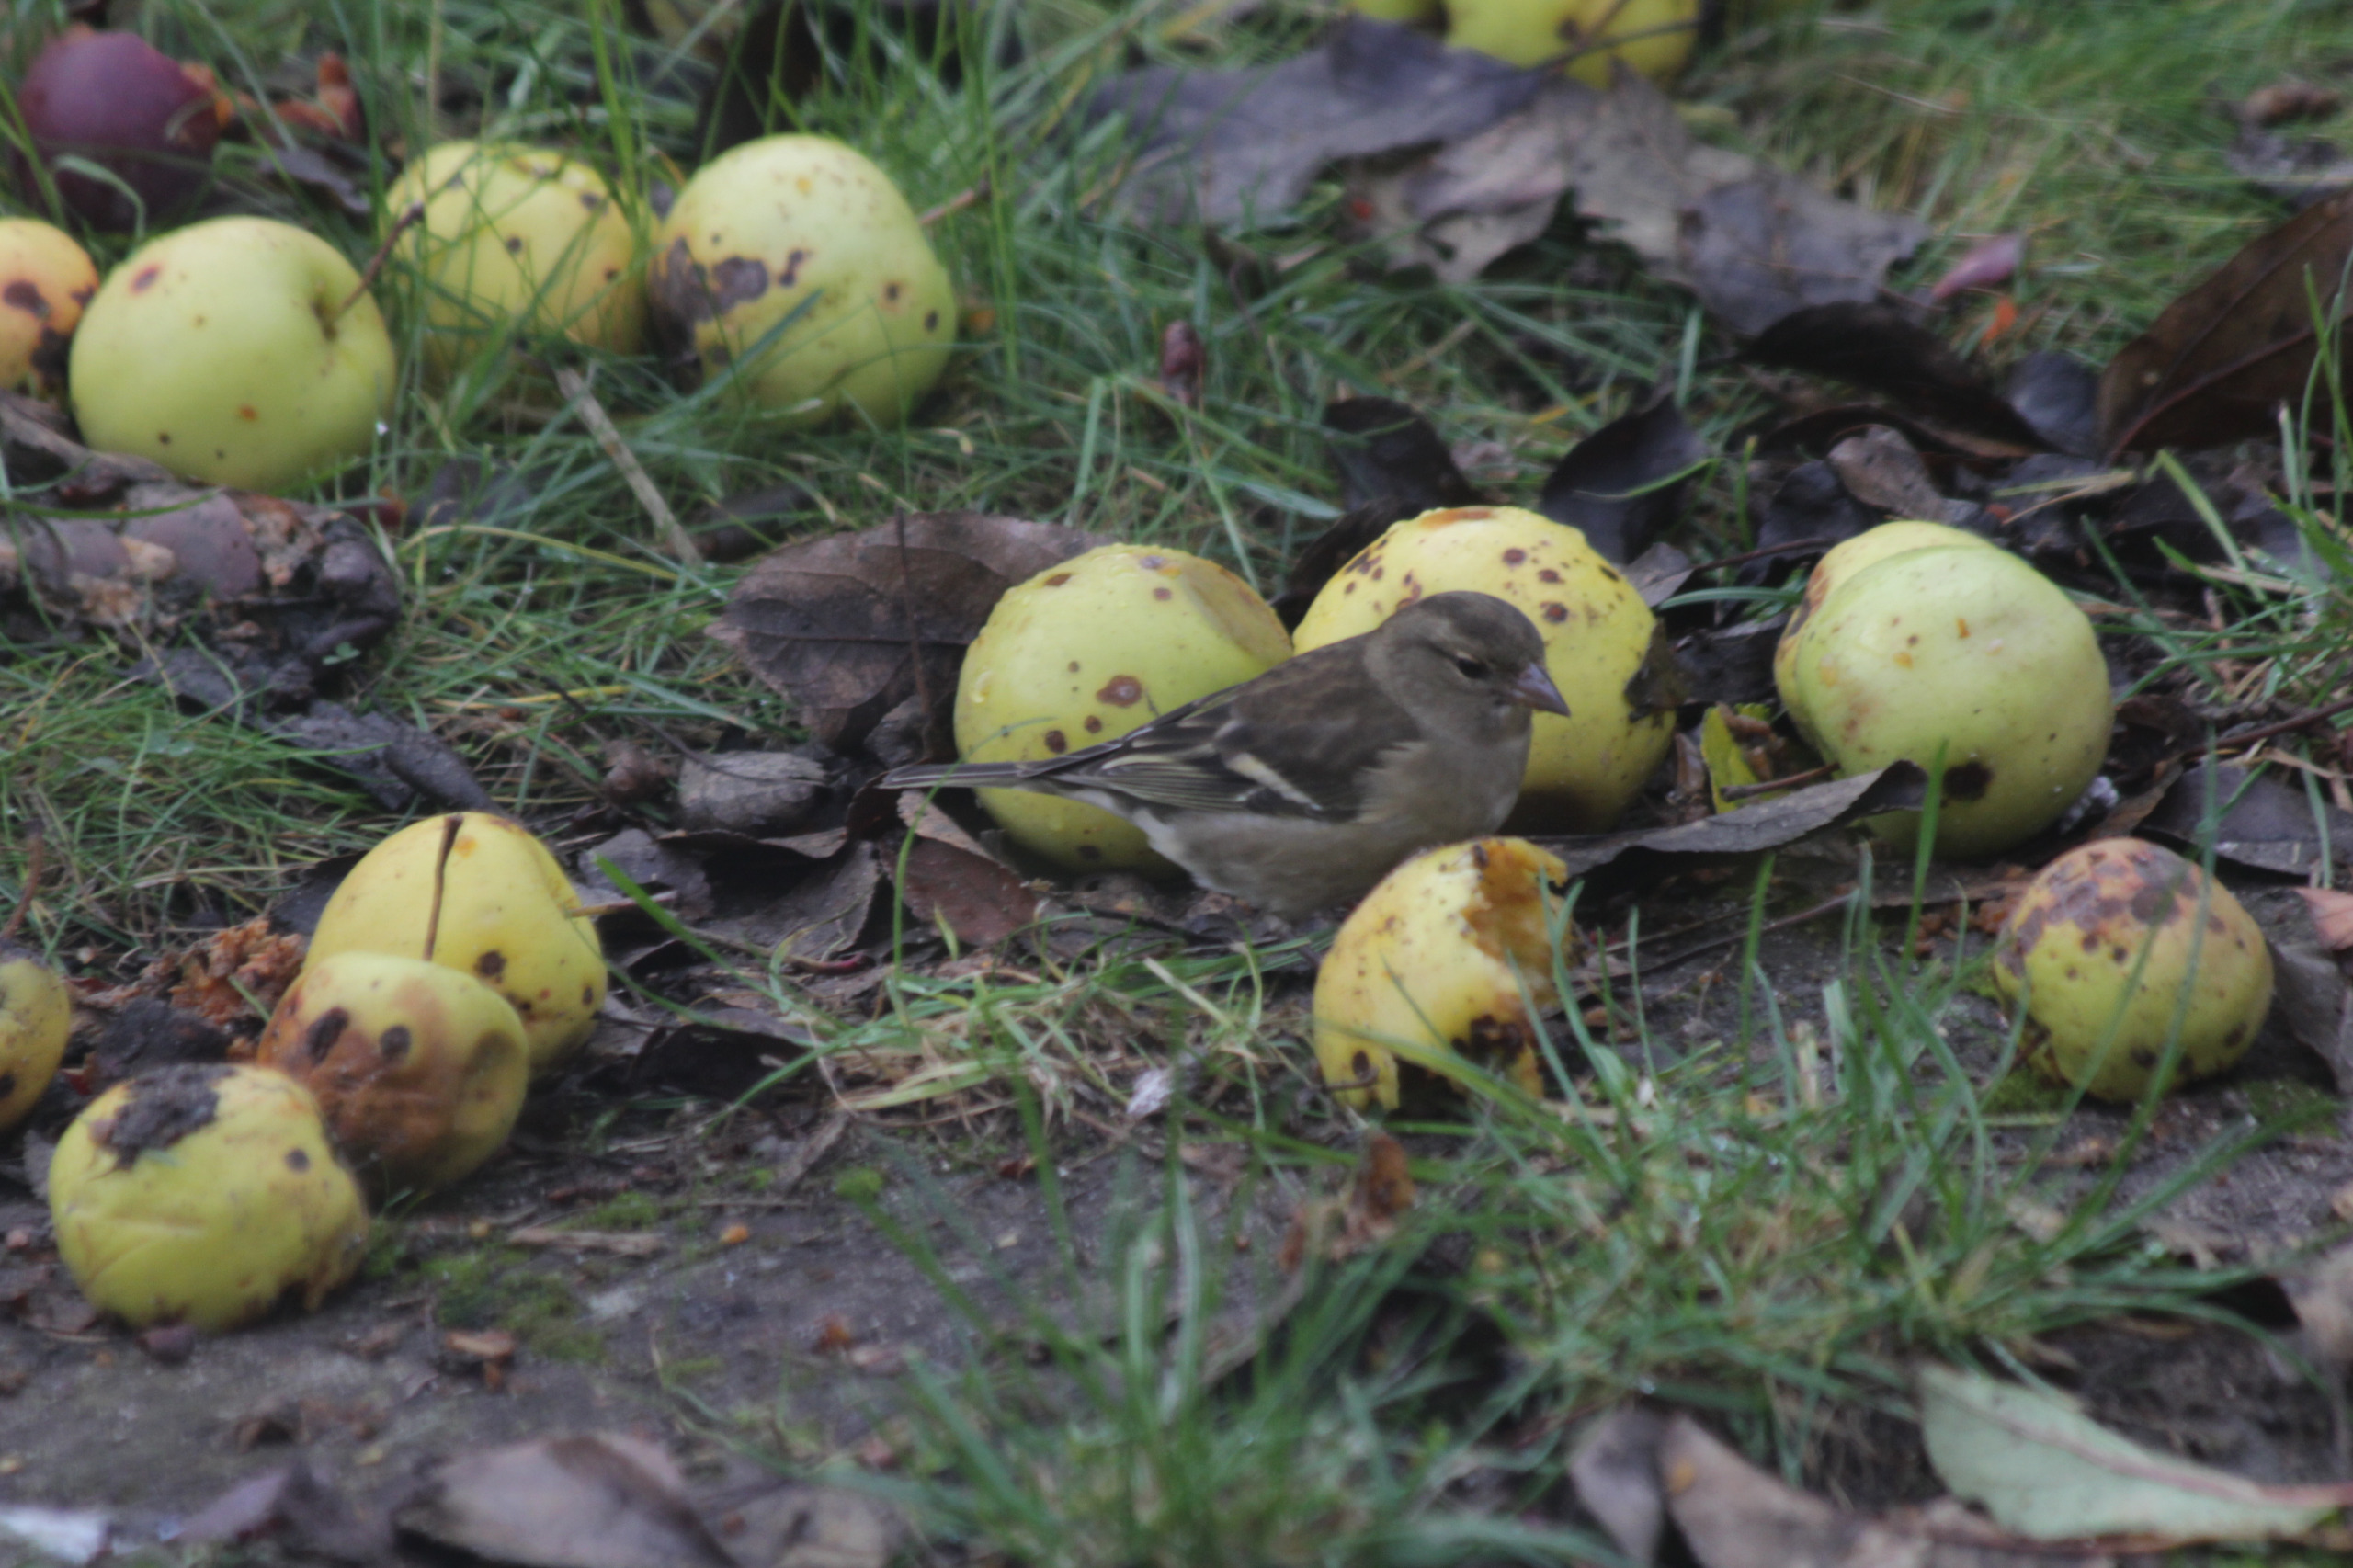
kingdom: Animalia
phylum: Chordata
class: Aves
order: Passeriformes
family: Fringillidae
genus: Fringilla
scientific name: Fringilla coelebs
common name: Bogfinke
